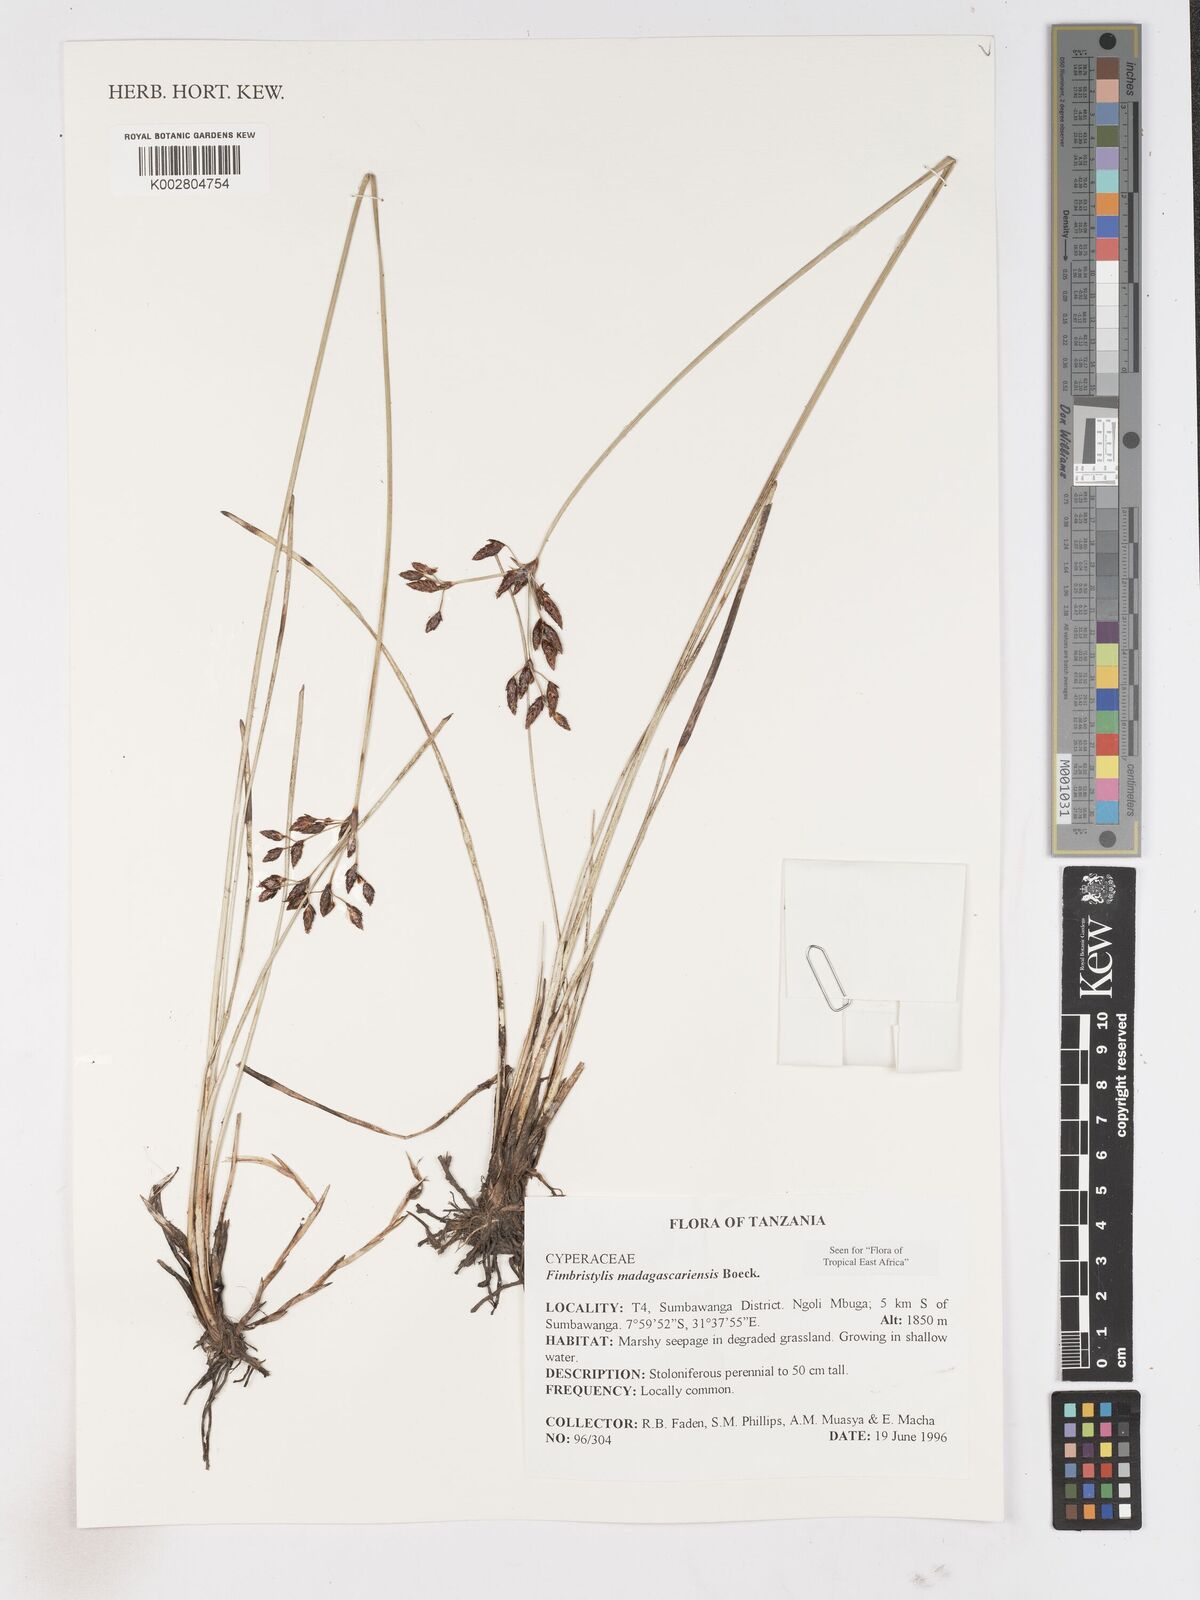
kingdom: Plantae
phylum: Tracheophyta
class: Liliopsida
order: Poales
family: Cyperaceae
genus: Fimbristylis
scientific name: Fimbristylis madagascariensis
